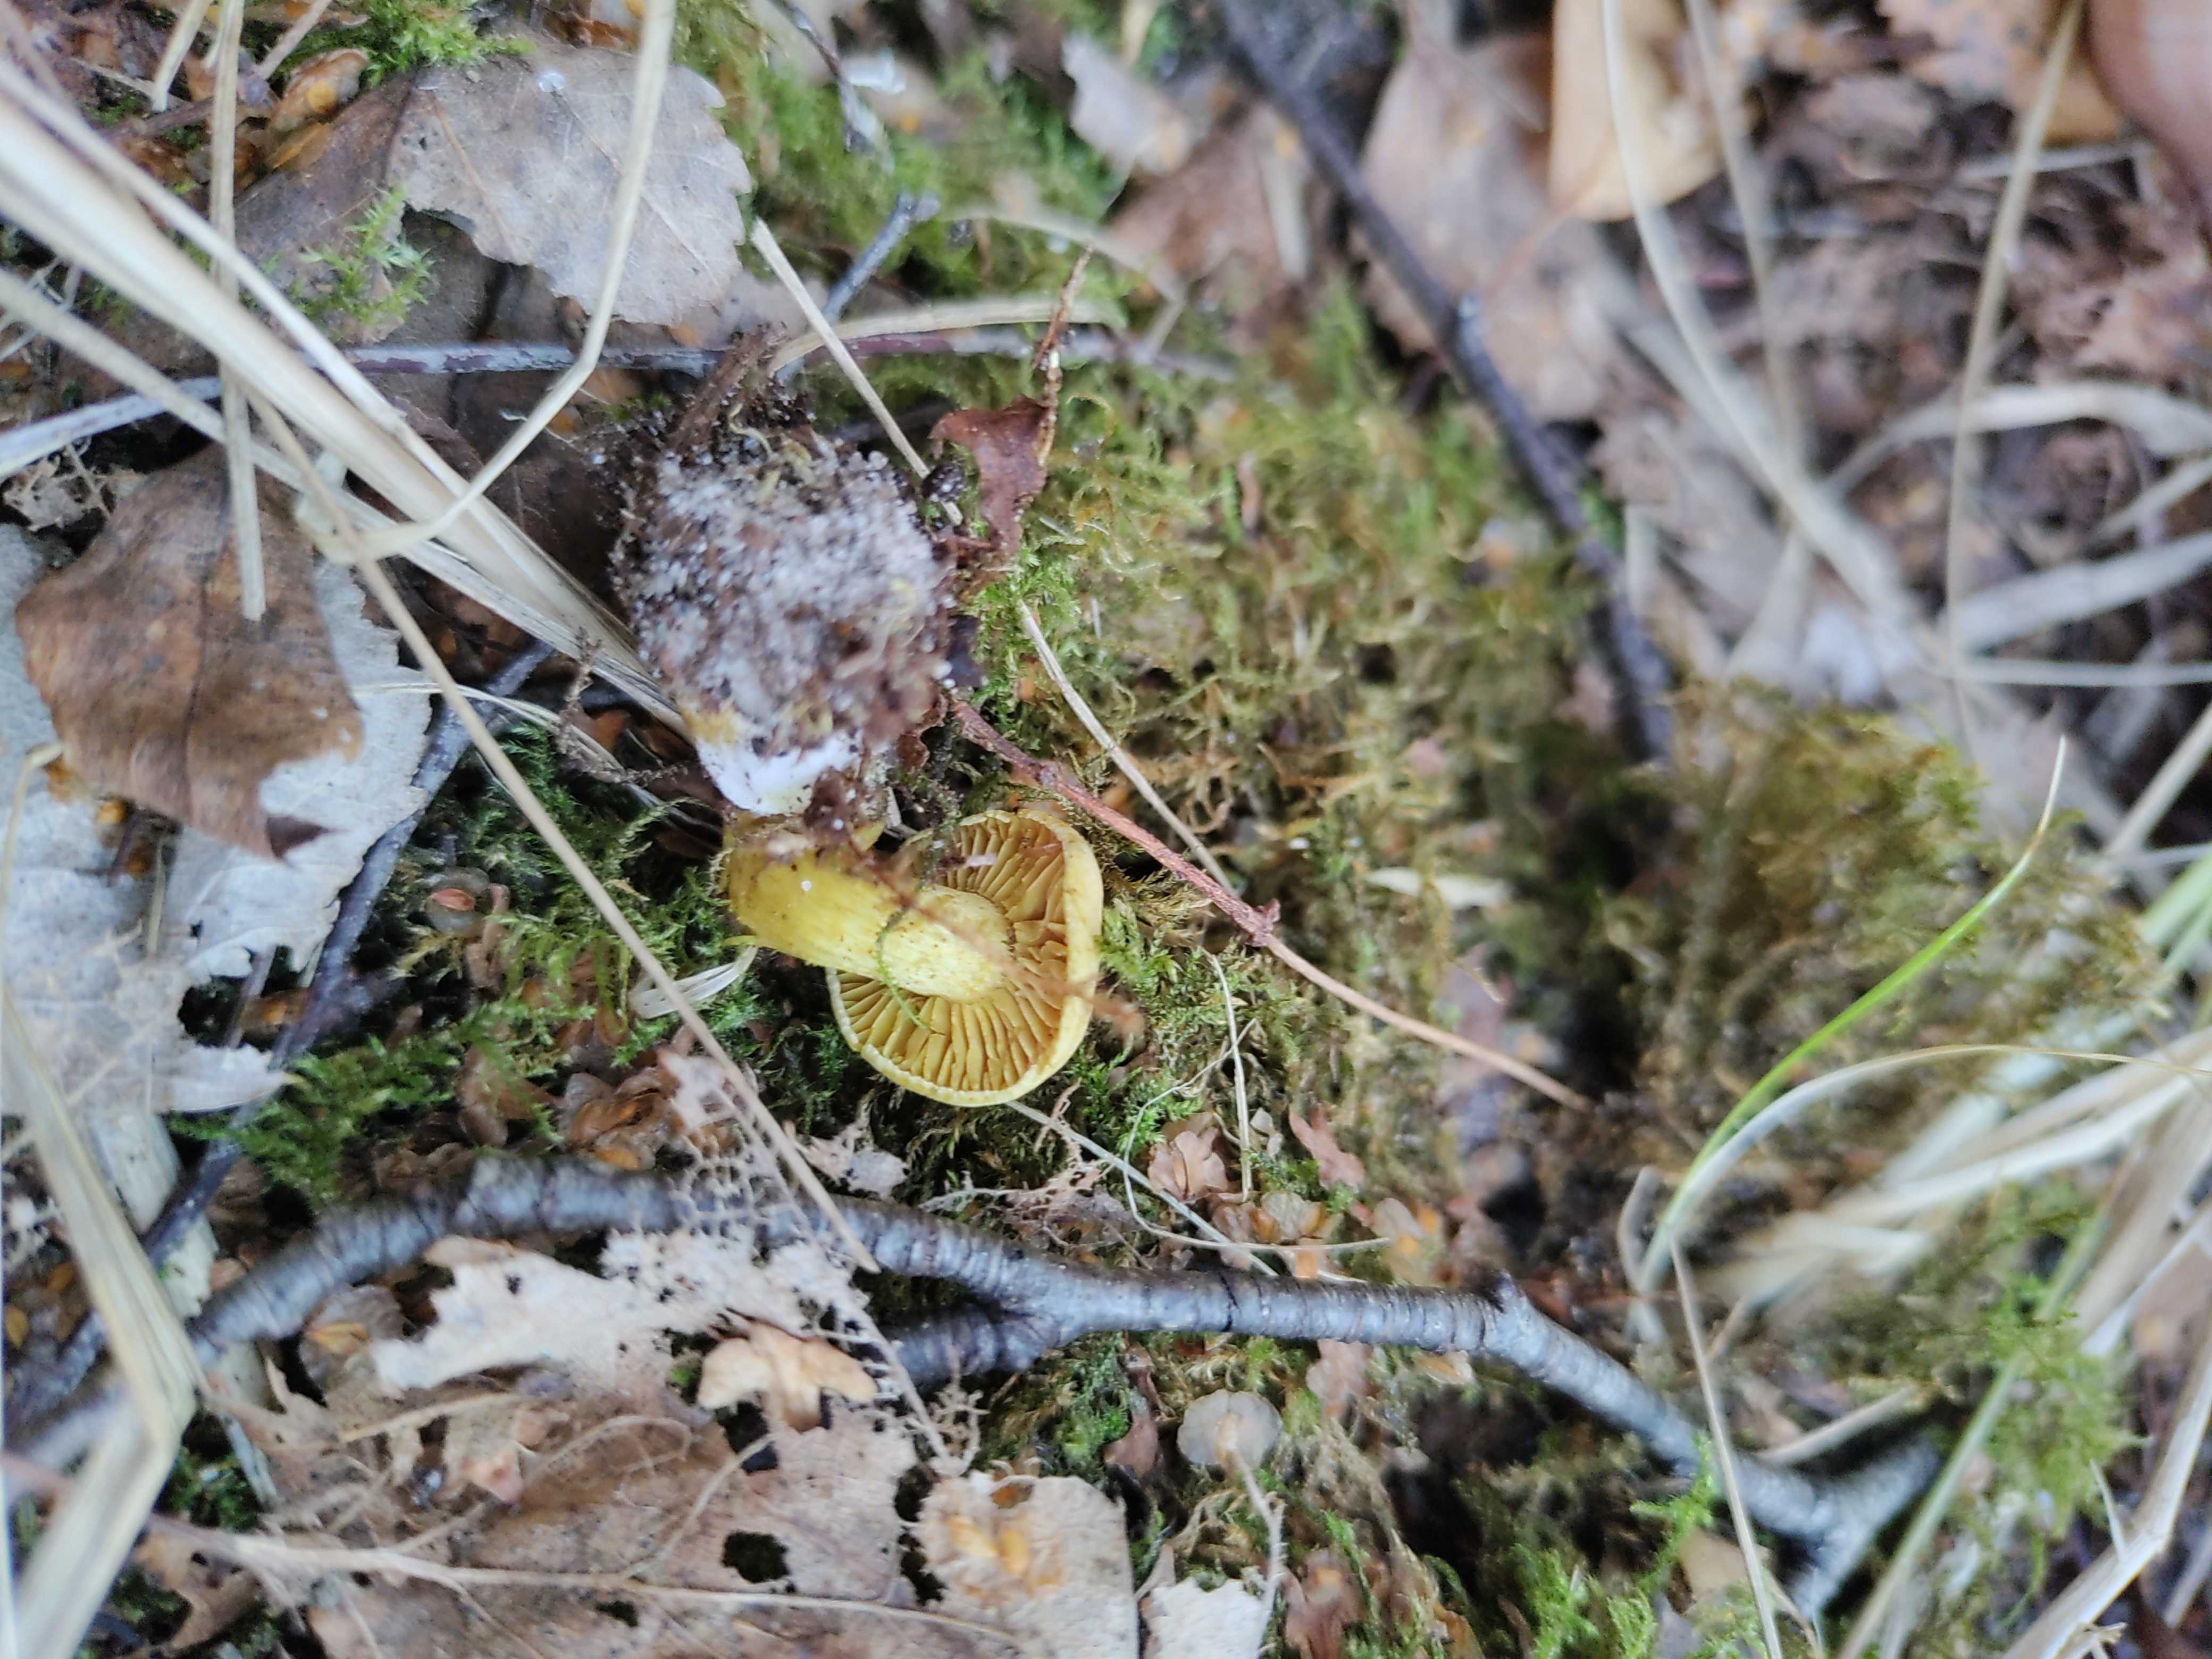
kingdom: Fungi
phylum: Basidiomycota
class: Agaricomycetes
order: Agaricales
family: Tricholomataceae
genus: Tricholoma
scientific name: Tricholoma sulphureum
